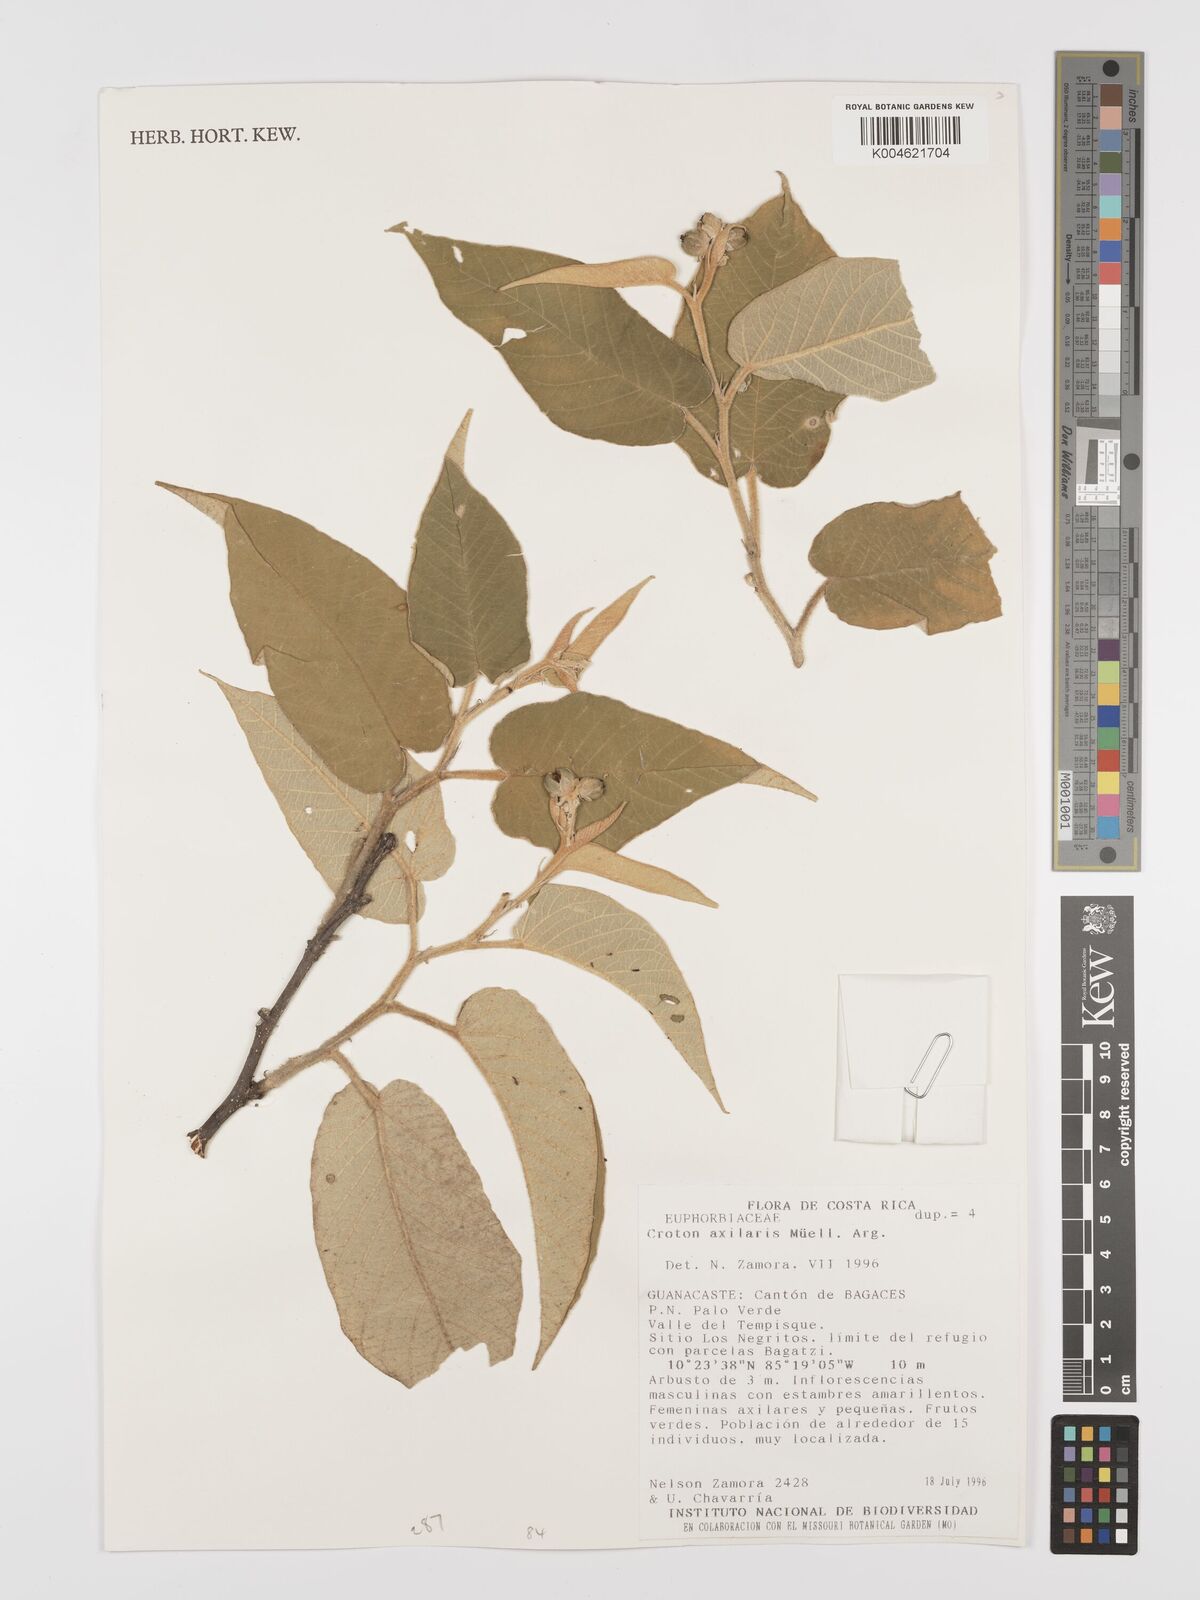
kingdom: Plantae
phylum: Tracheophyta
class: Magnoliopsida
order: Malpighiales
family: Euphorbiaceae
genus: Croton
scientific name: Croton axillaris
